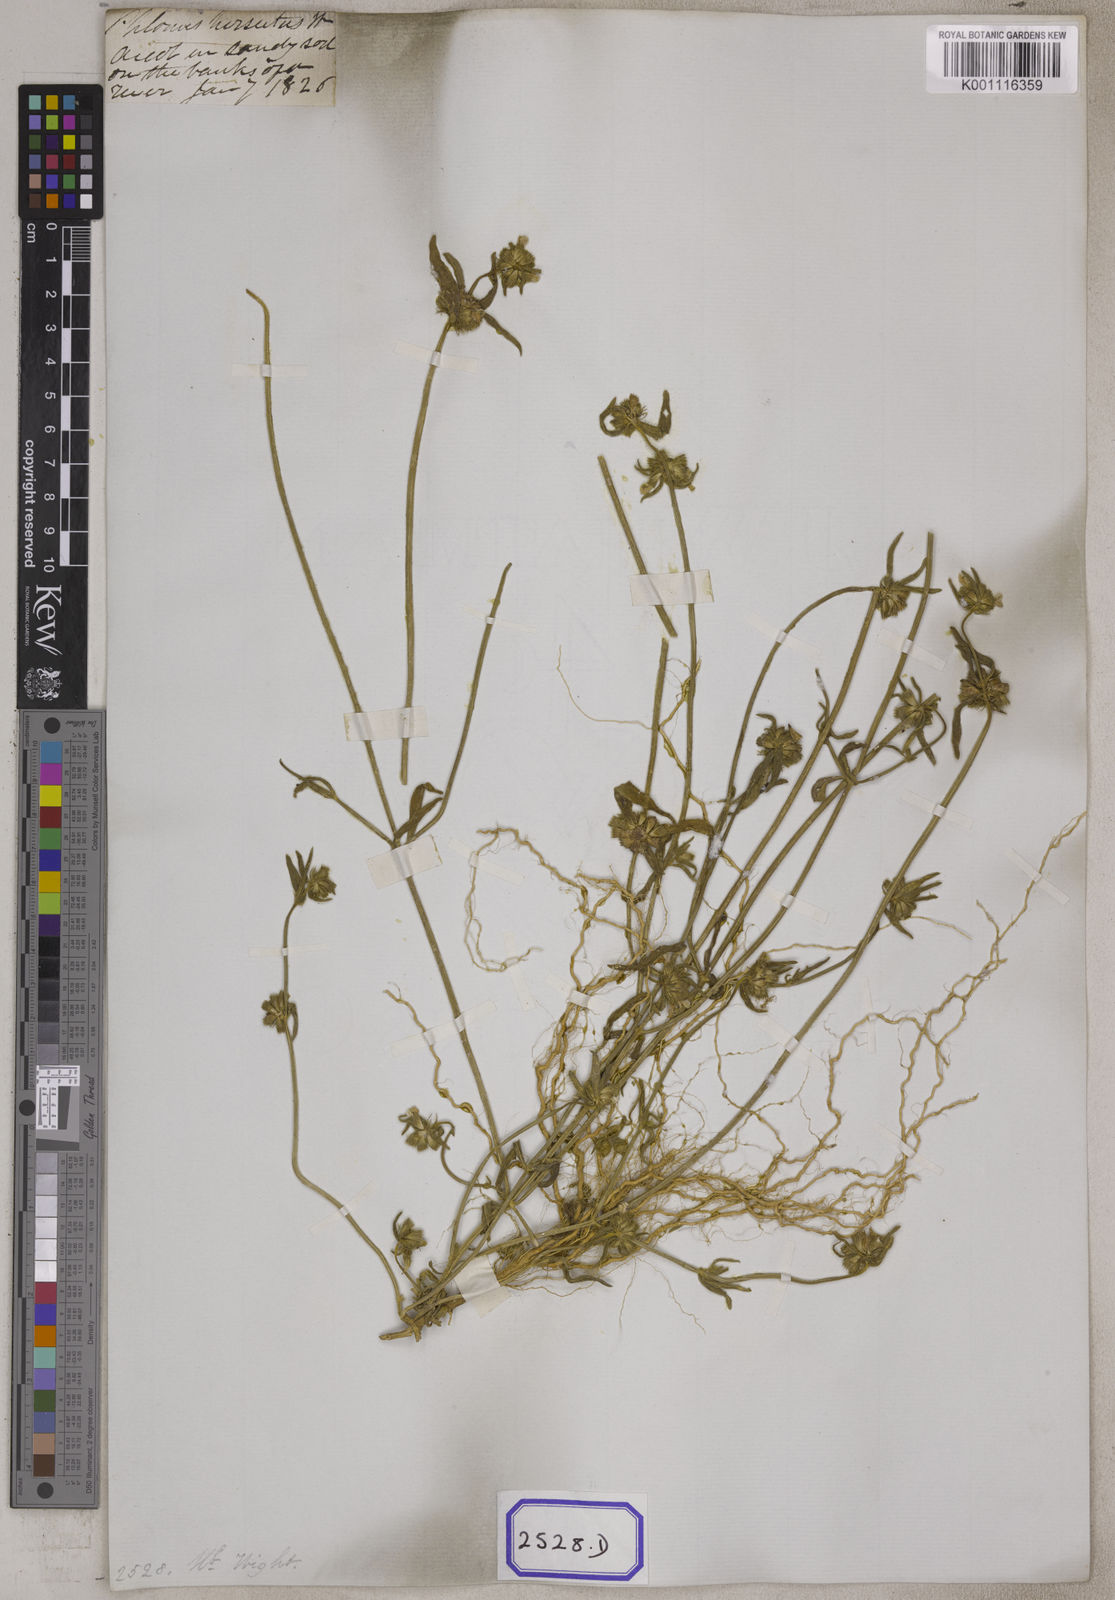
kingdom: Plantae
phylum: Tracheophyta
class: Magnoliopsida
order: Lamiales
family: Lamiaceae
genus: Leucas
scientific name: Leucas aspera
